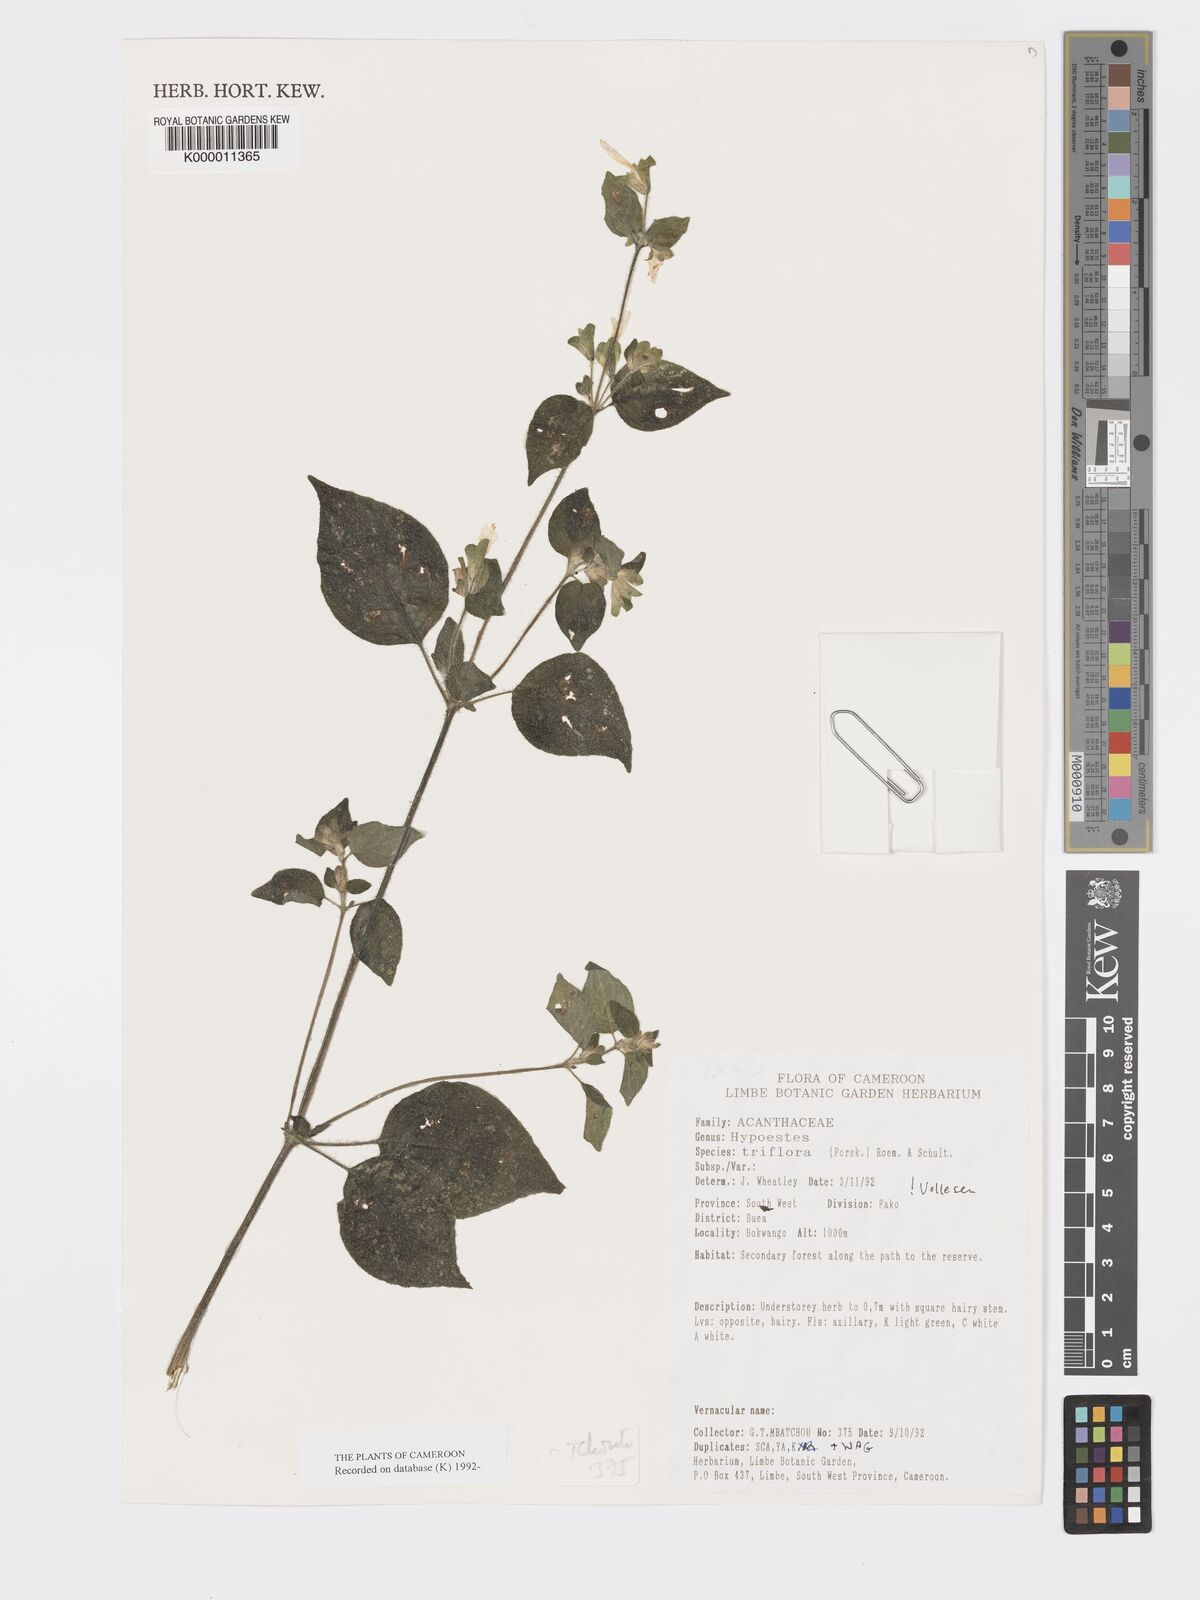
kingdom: Plantae
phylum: Tracheophyta
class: Magnoliopsida
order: Lamiales
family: Acanthaceae
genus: Hypoestes
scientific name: Hypoestes triflora
